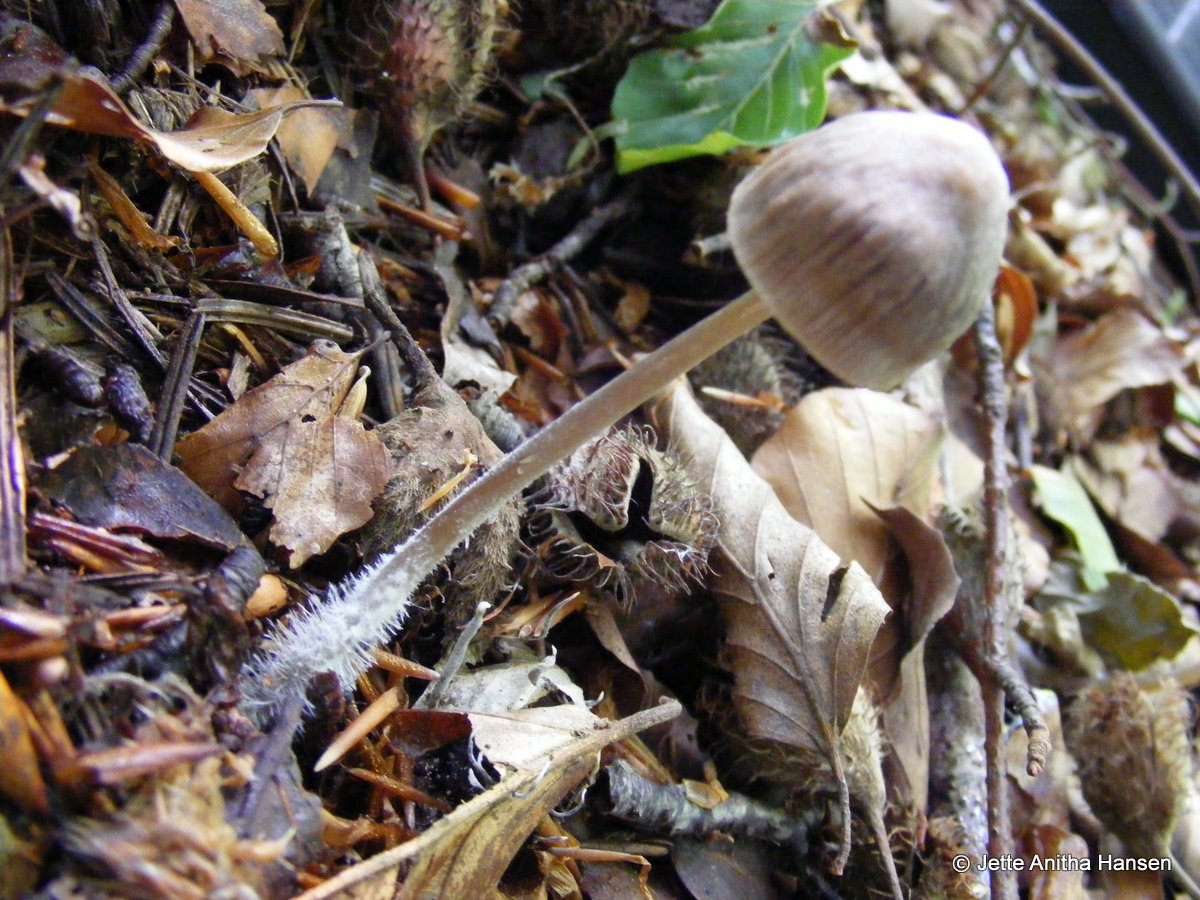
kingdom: Fungi
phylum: Basidiomycota
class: Agaricomycetes
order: Agaricales
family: Mycenaceae
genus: Mycena
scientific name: Mycena abramsii
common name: sommer-huesvamp
